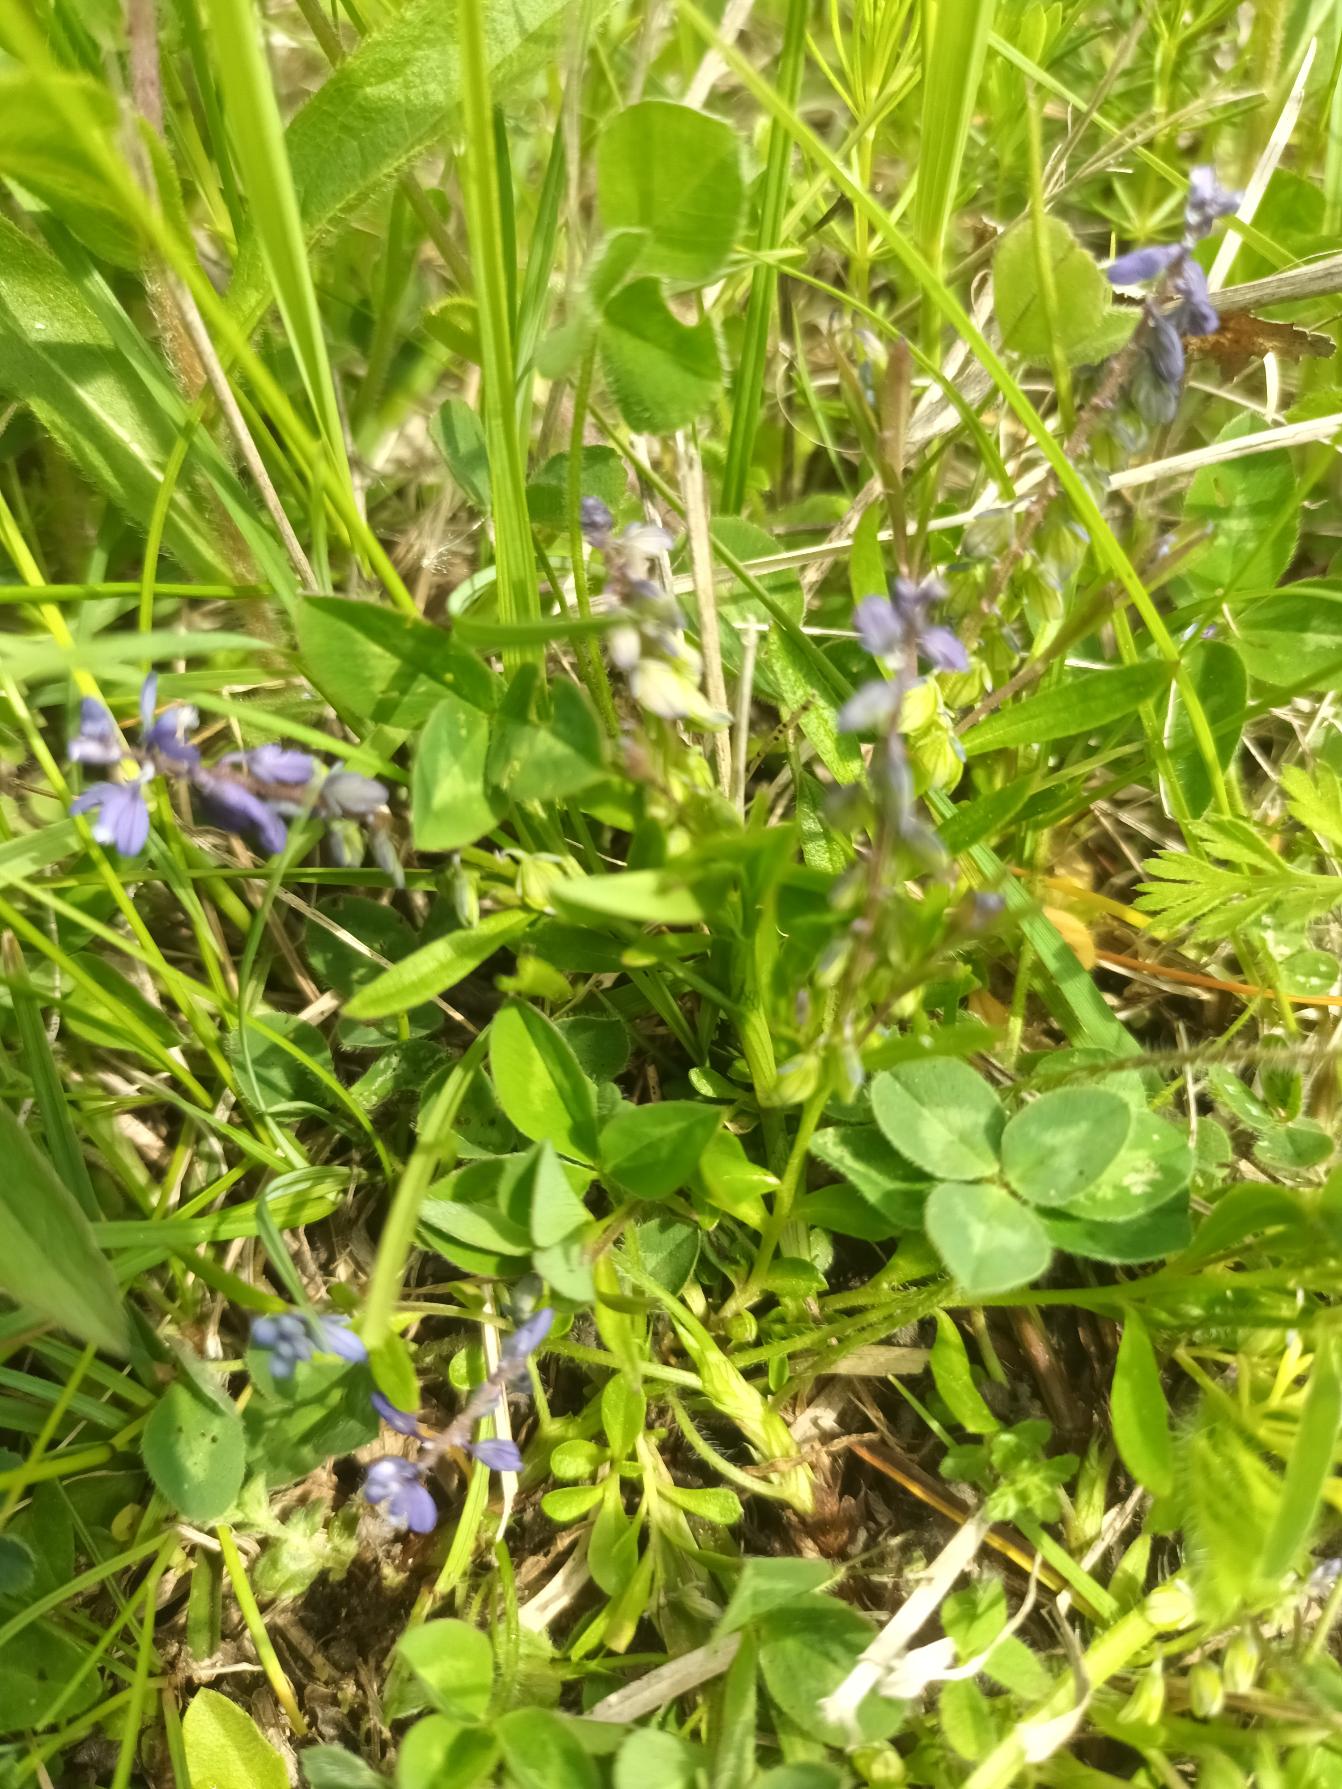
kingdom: Plantae
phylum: Tracheophyta
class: Magnoliopsida
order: Fabales
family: Polygalaceae
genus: Polygala
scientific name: Polygala amarella
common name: Bitter mælkeurt
